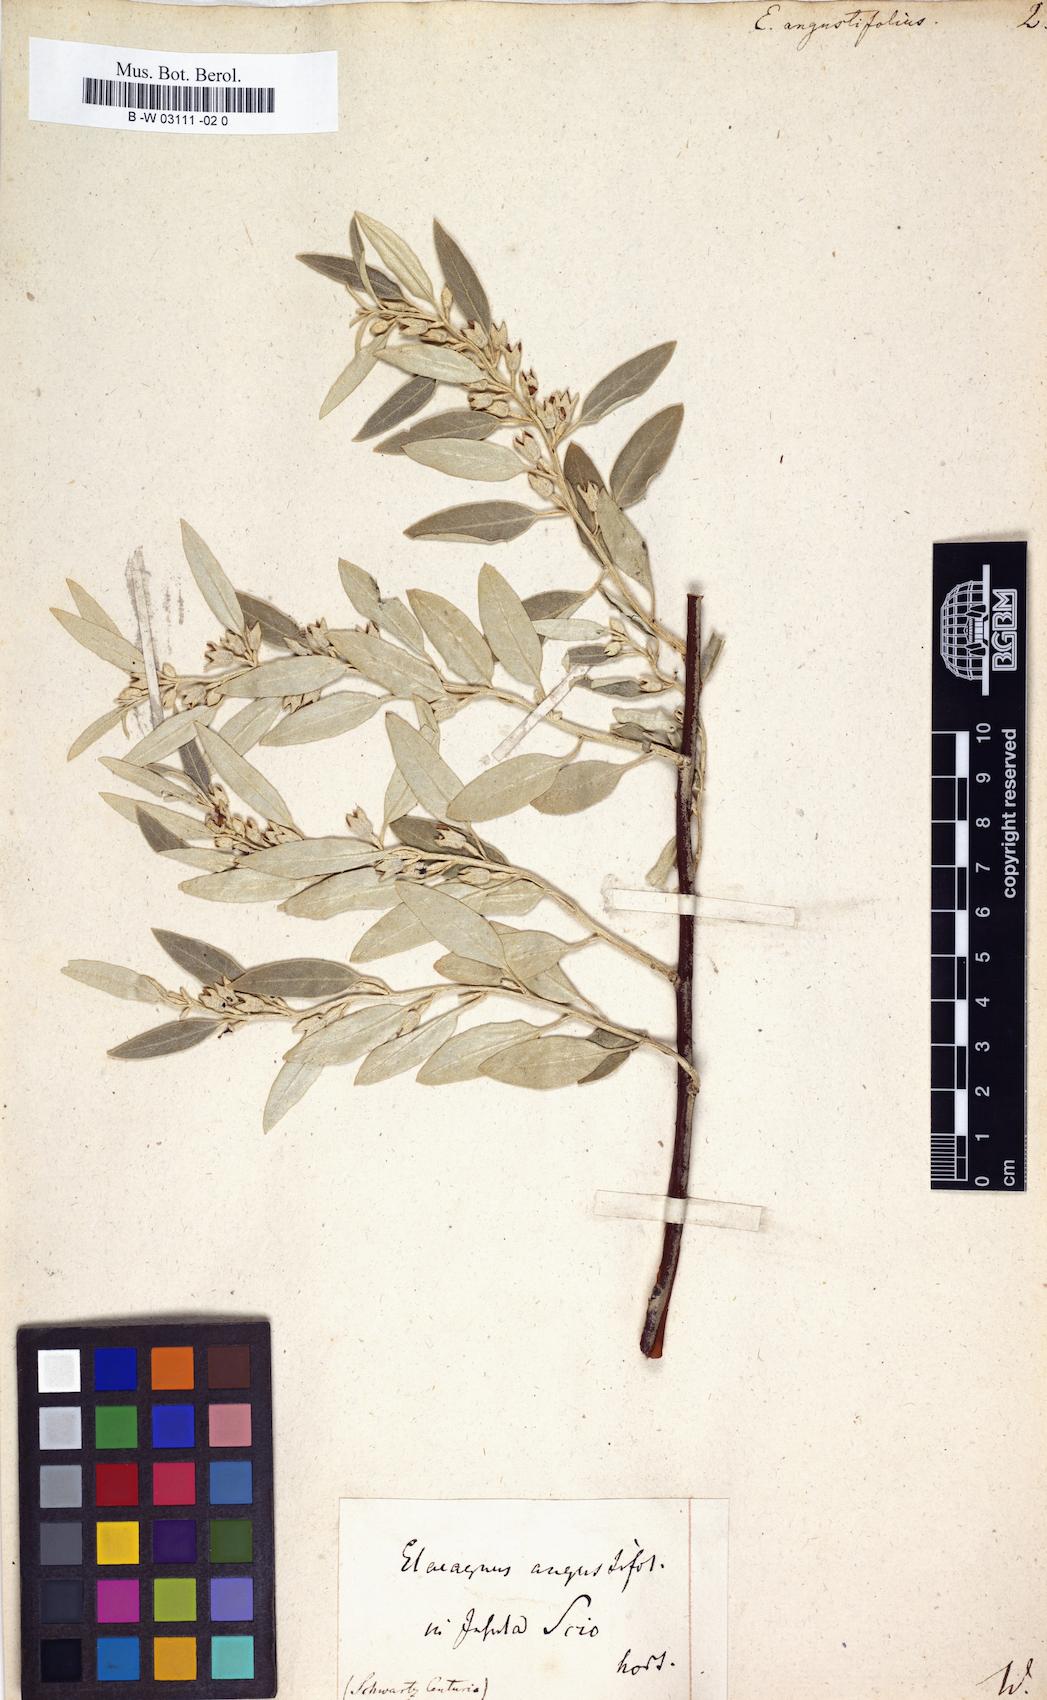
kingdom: Plantae
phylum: Tracheophyta
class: Magnoliopsida
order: Rosales
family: Elaeagnaceae
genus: Elaeagnus
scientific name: Elaeagnus angustifolia
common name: Russian olive
